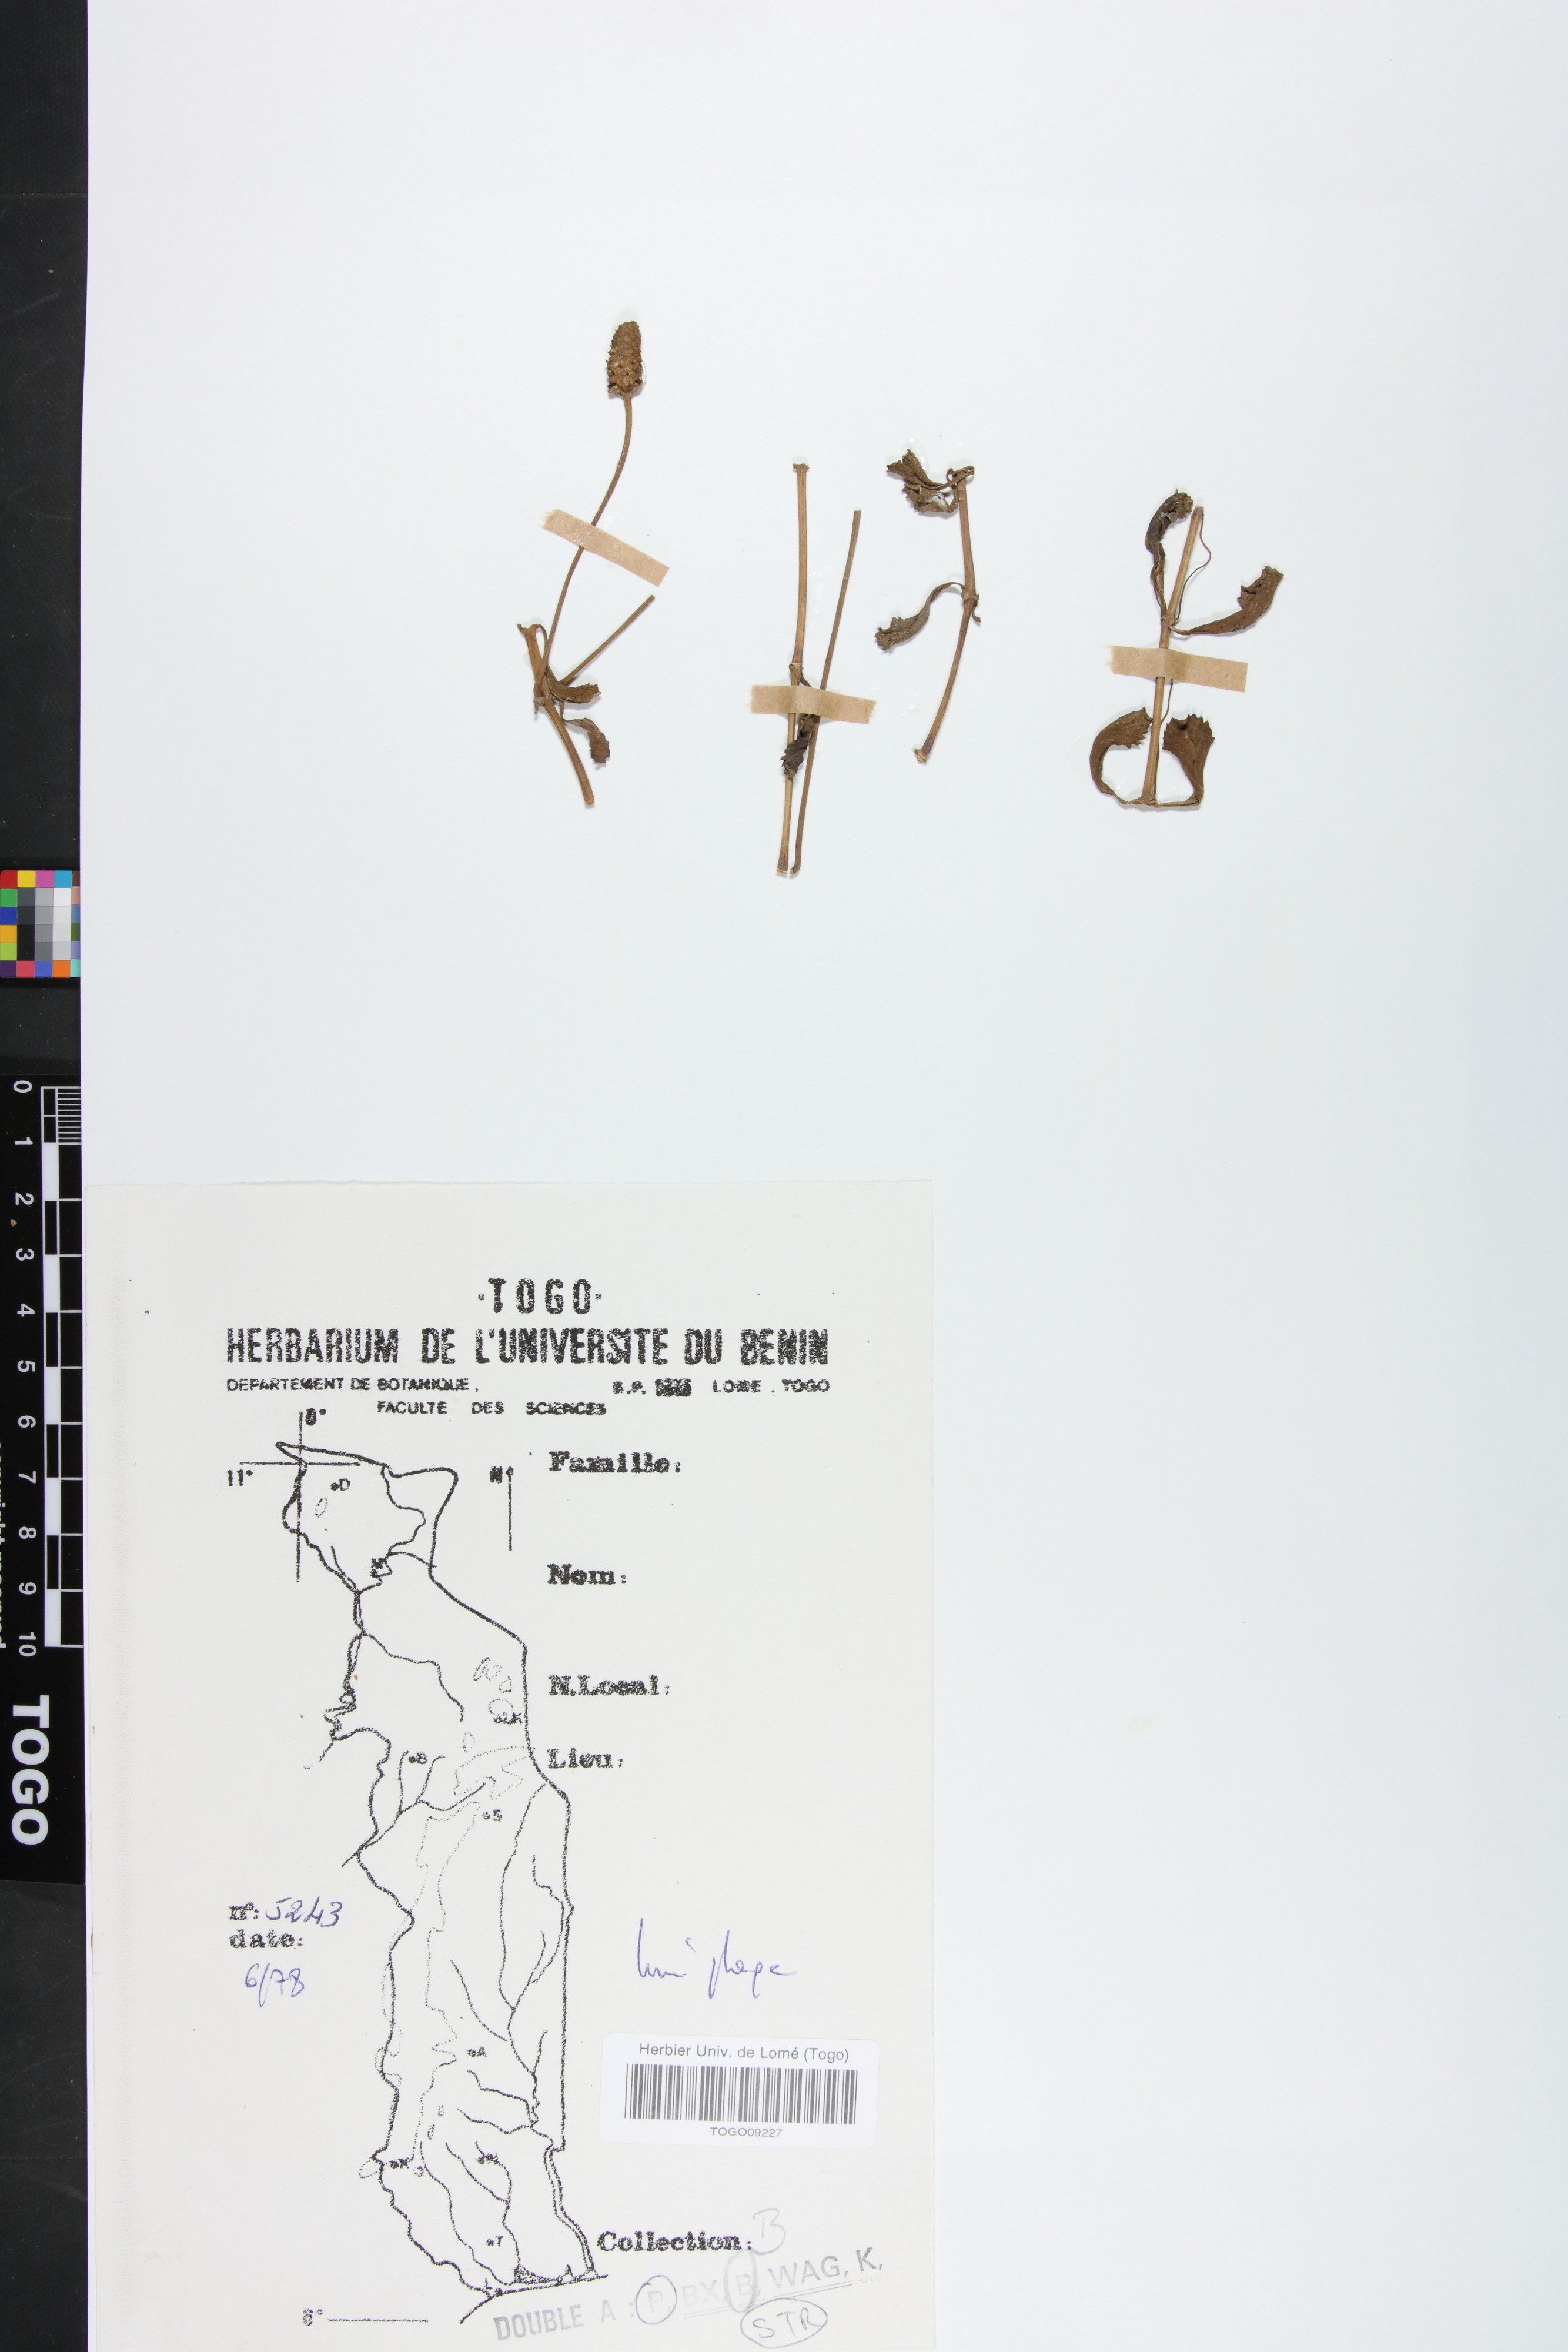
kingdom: Plantae
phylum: Tracheophyta
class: Magnoliopsida
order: Lamiales
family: Verbenaceae
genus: Phyla
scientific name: Phyla nodiflora
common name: Frogfruit
